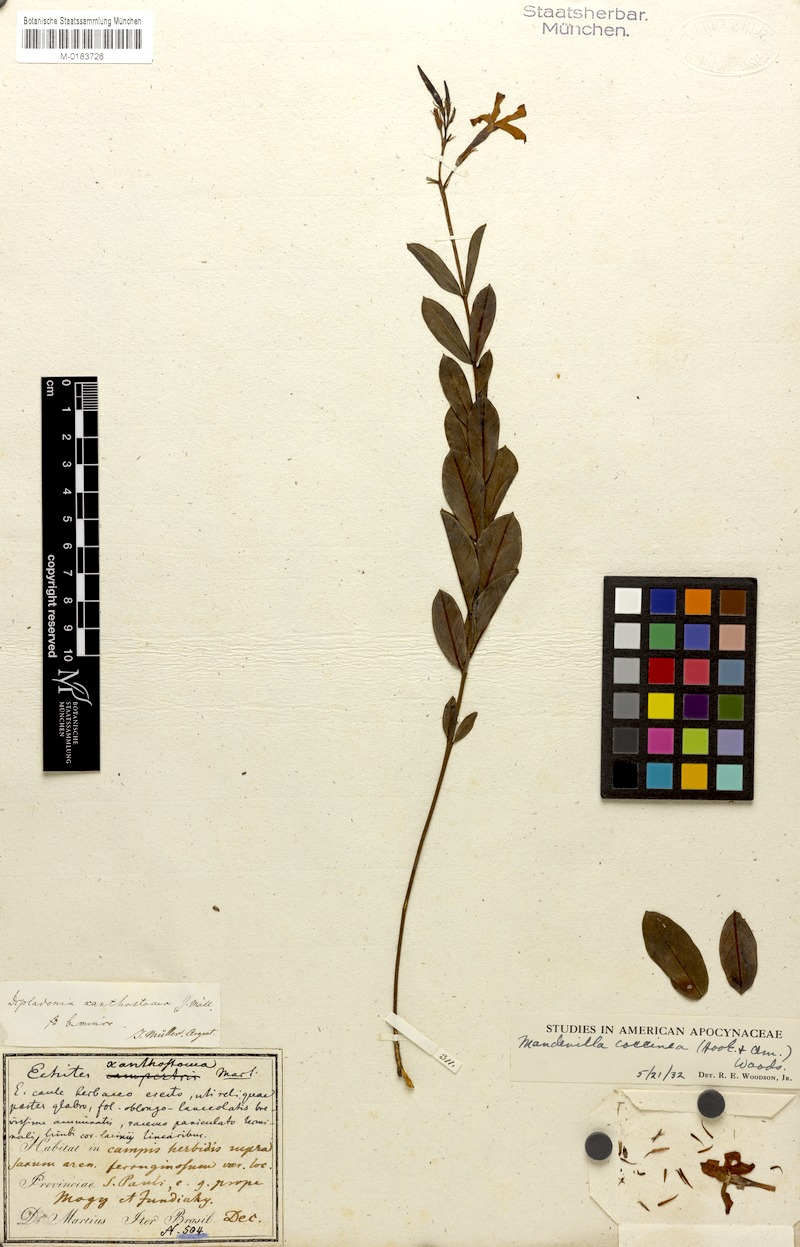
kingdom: Plantae
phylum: Tracheophyta
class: Magnoliopsida
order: Gentianales
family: Apocynaceae
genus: Mandevilla
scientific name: Mandevilla coccinea
